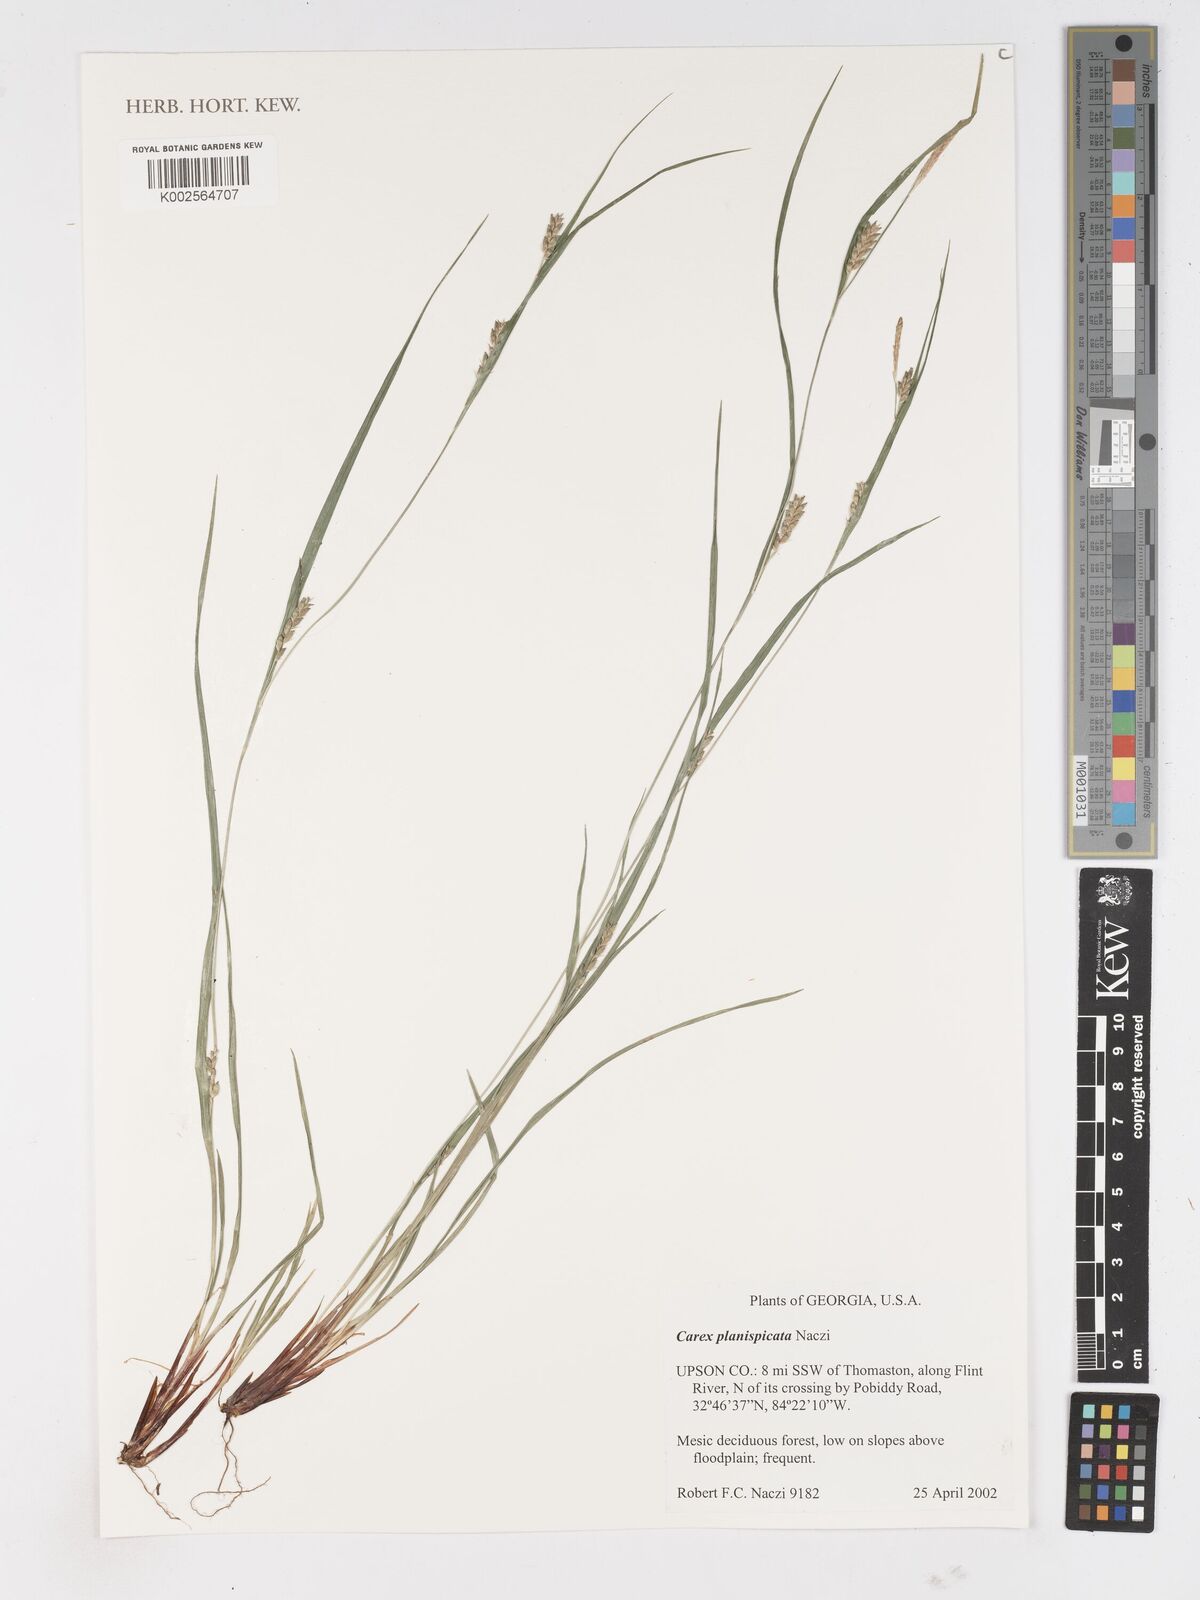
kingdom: Plantae
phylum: Tracheophyta
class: Liliopsida
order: Poales
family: Cyperaceae
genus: Carex
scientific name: Carex planispicata
